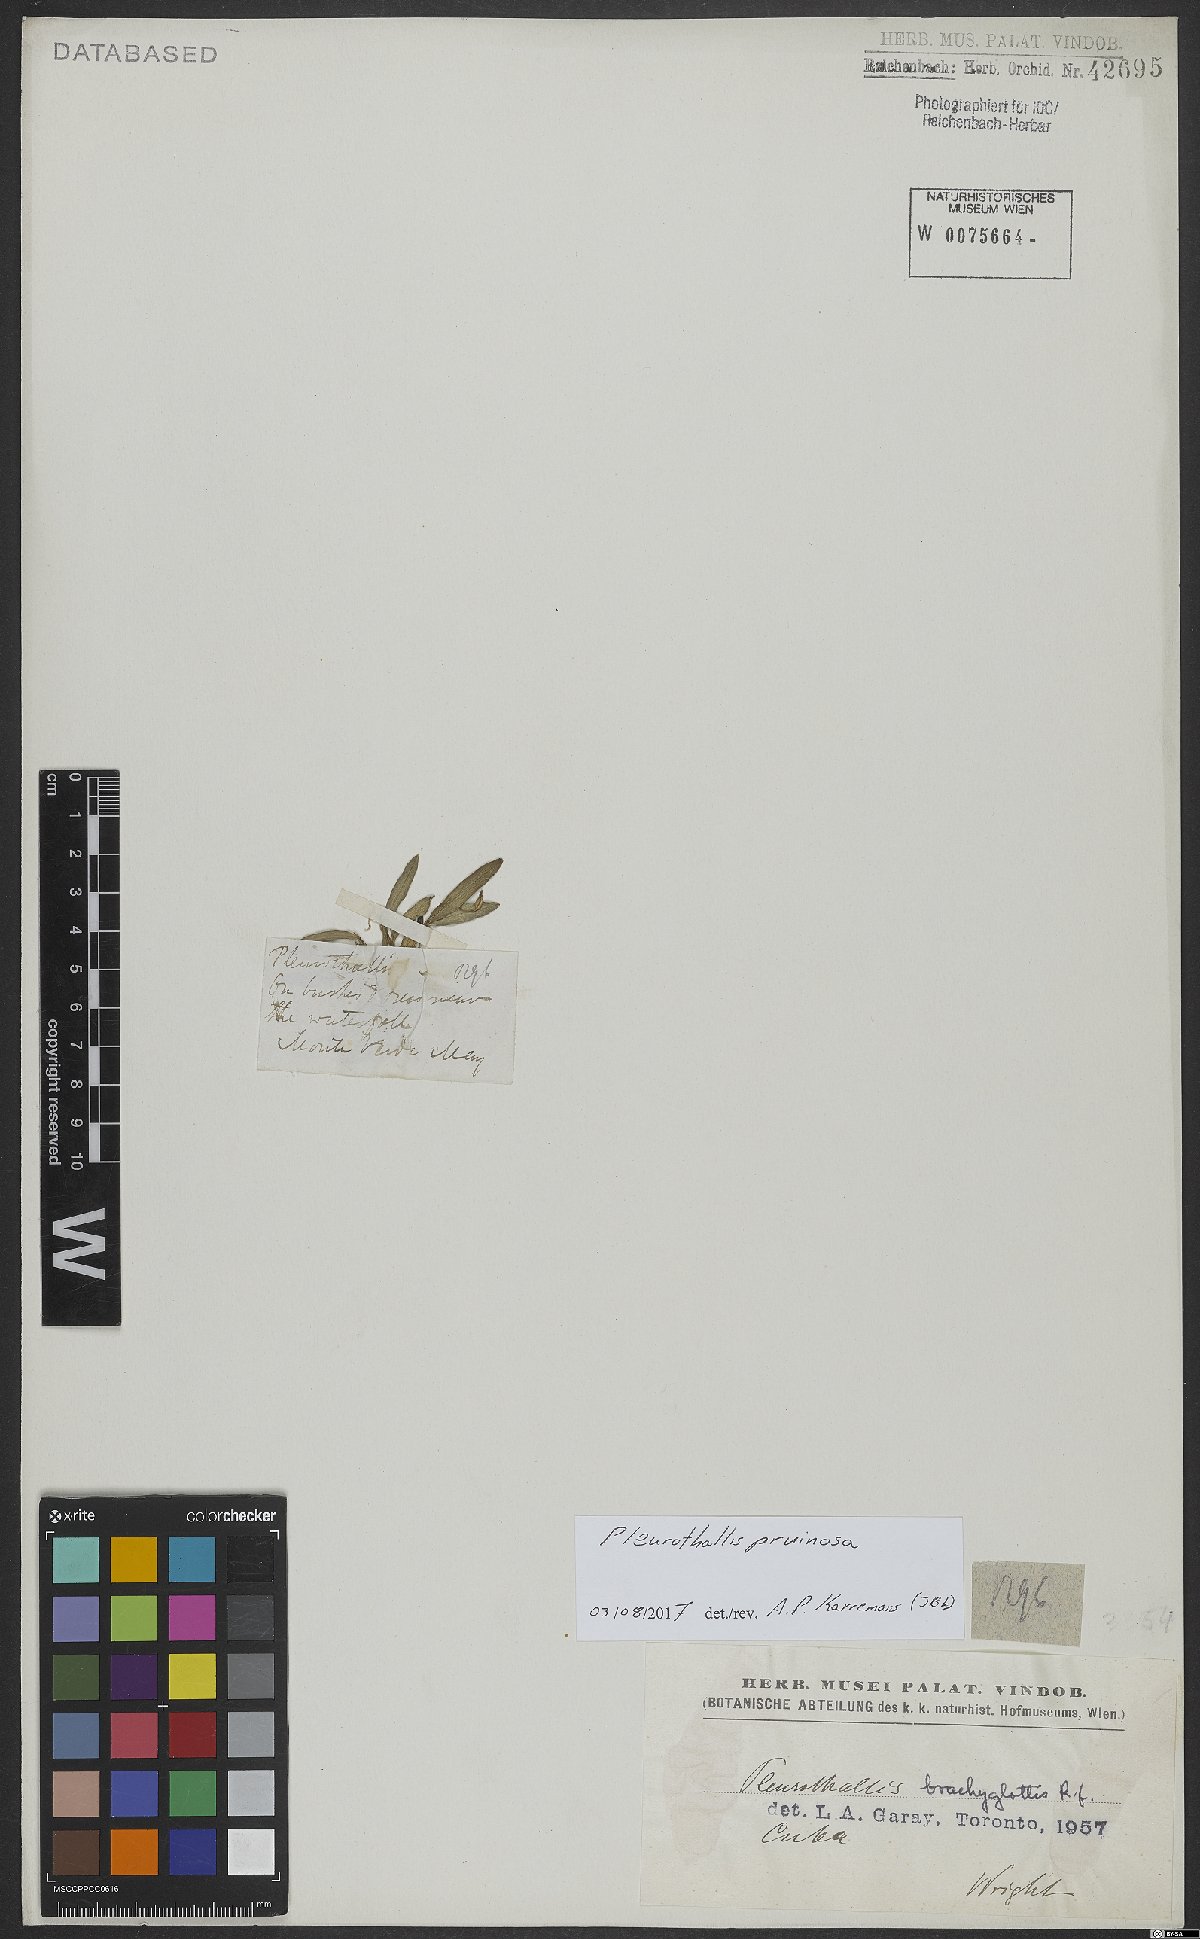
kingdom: Plantae
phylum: Tracheophyta
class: Liliopsida
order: Asparagales
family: Orchidaceae
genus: Pleurothallis
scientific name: Pleurothallis pruinosa
